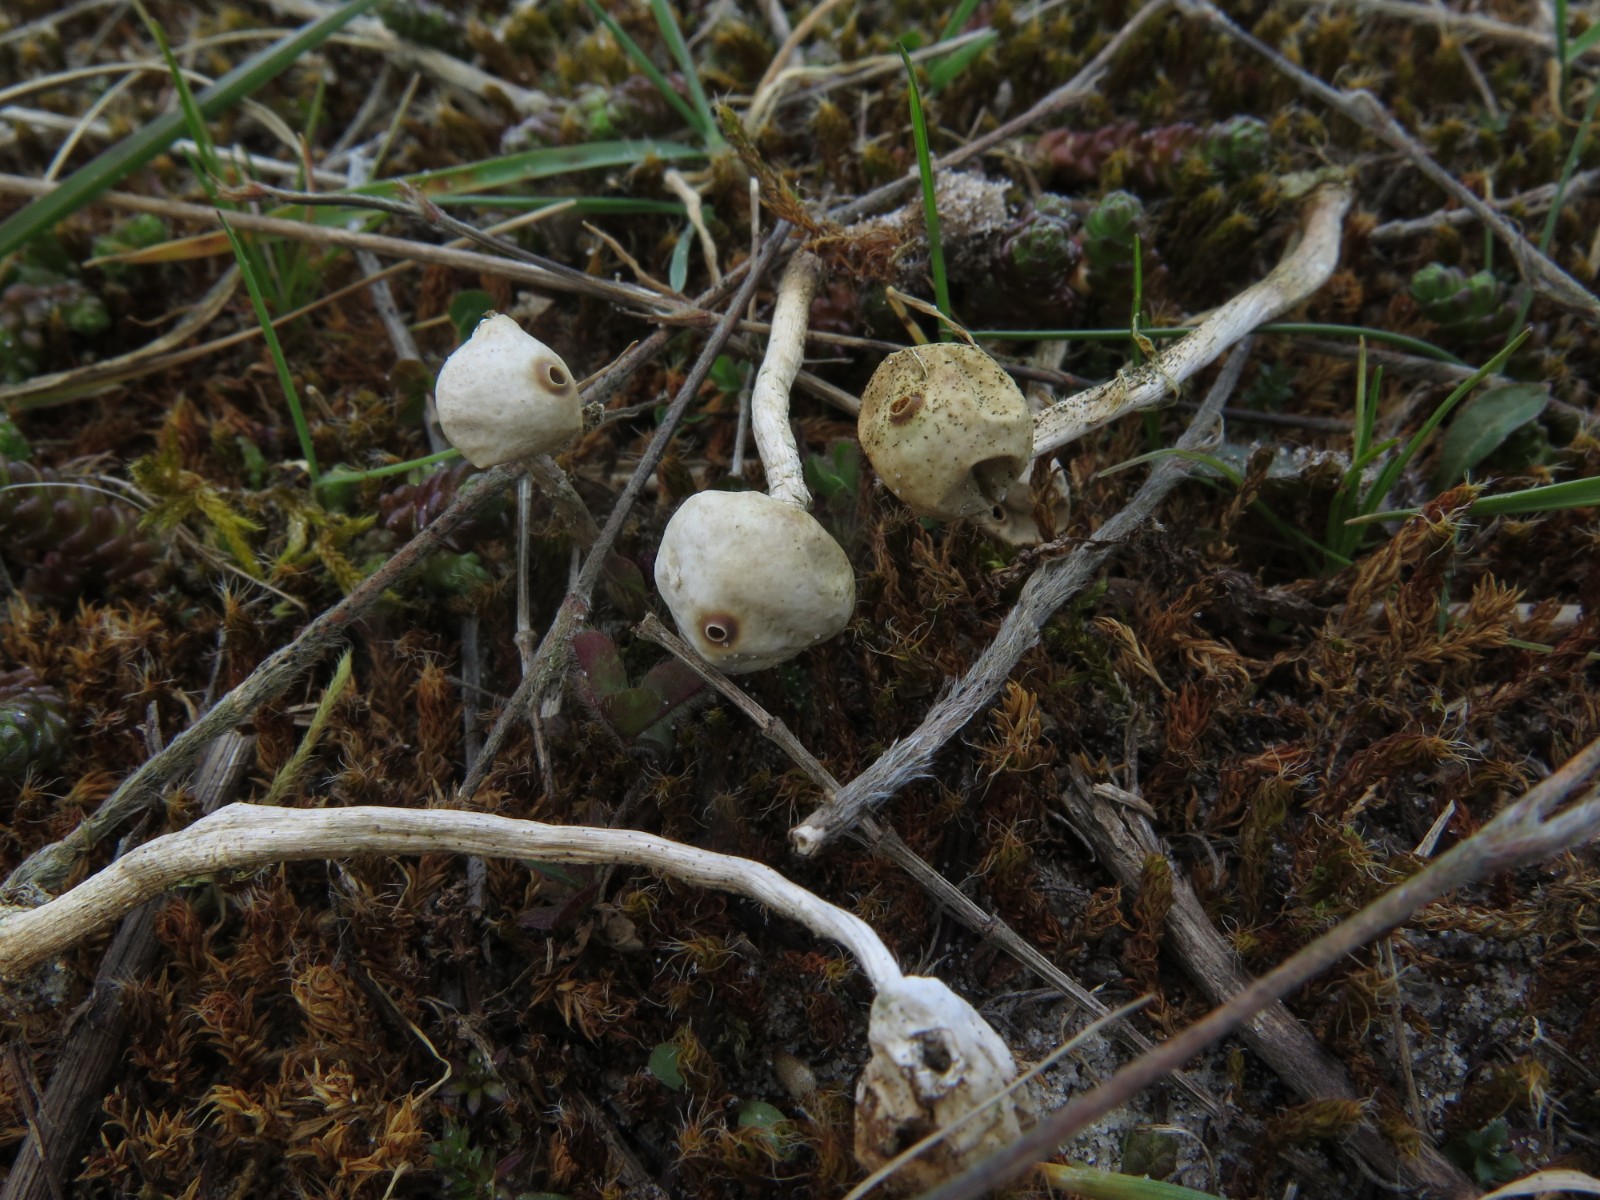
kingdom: Fungi
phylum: Basidiomycota
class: Agaricomycetes
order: Agaricales
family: Agaricaceae
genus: Tulostoma
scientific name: Tulostoma brumale
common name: vinter-stilkbovist
